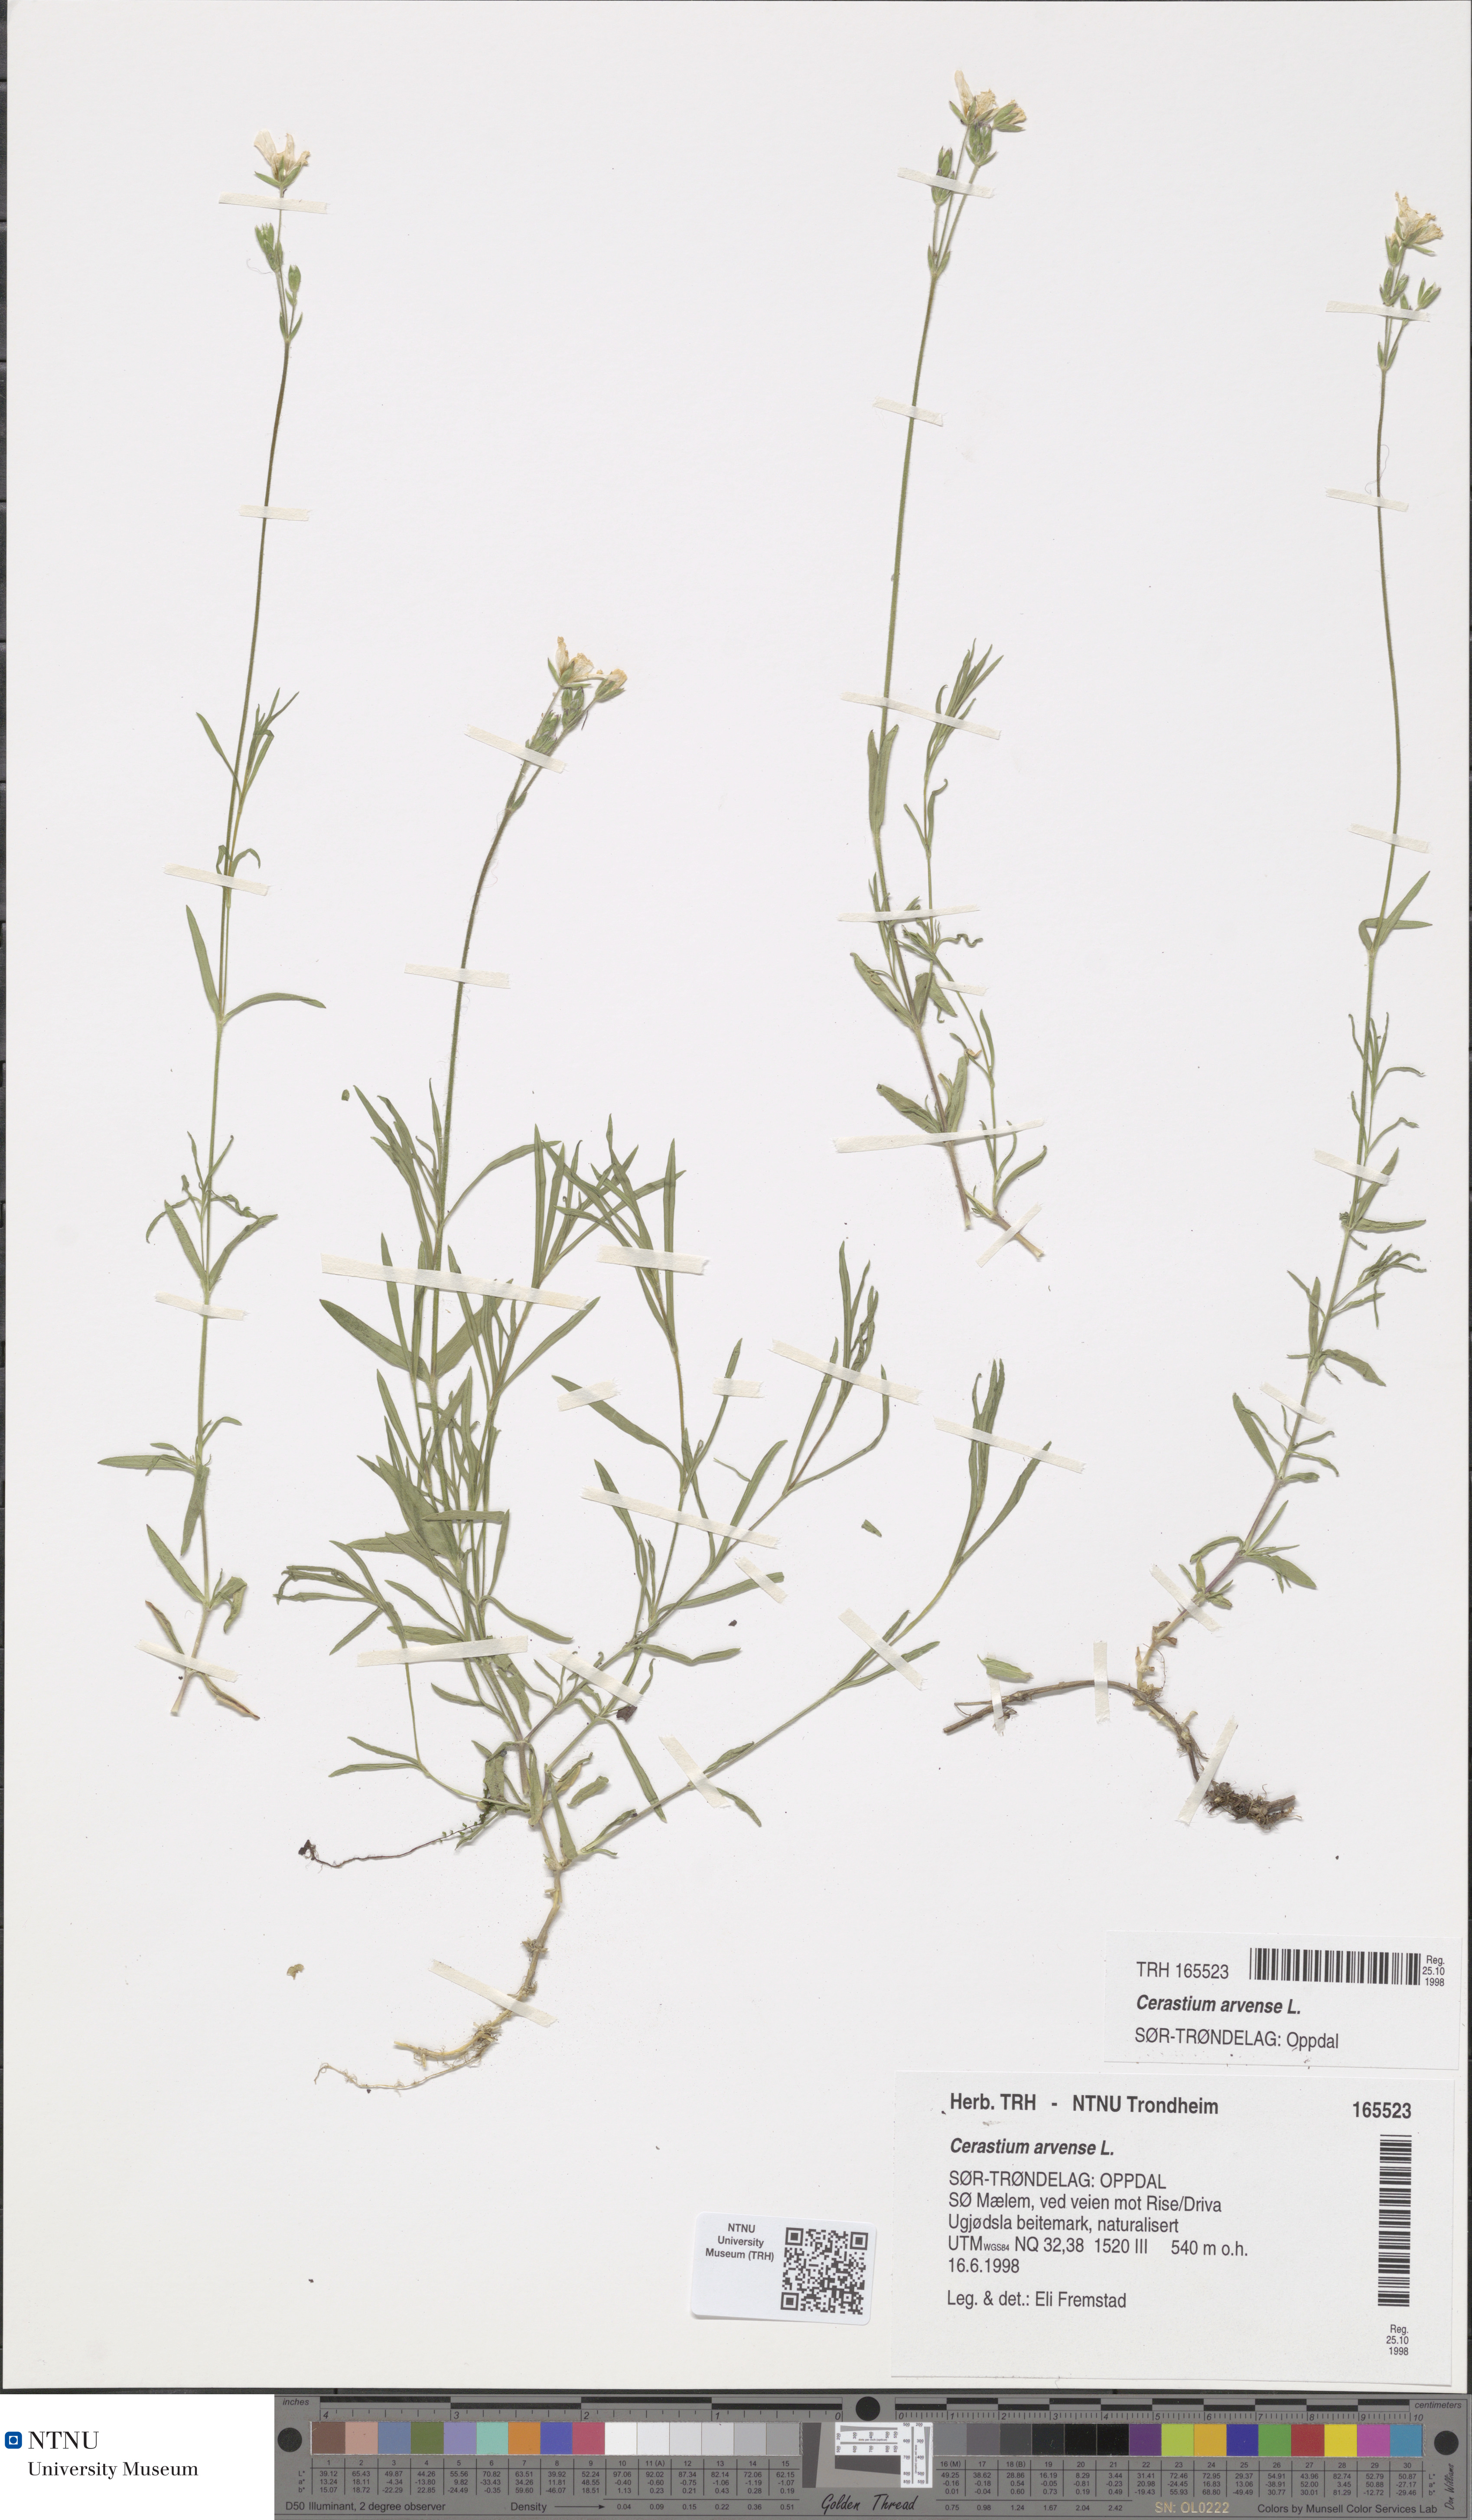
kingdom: Plantae
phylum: Tracheophyta
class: Magnoliopsida
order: Caryophyllales
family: Caryophyllaceae
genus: Cerastium
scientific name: Cerastium arvense
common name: Field mouse-ear
